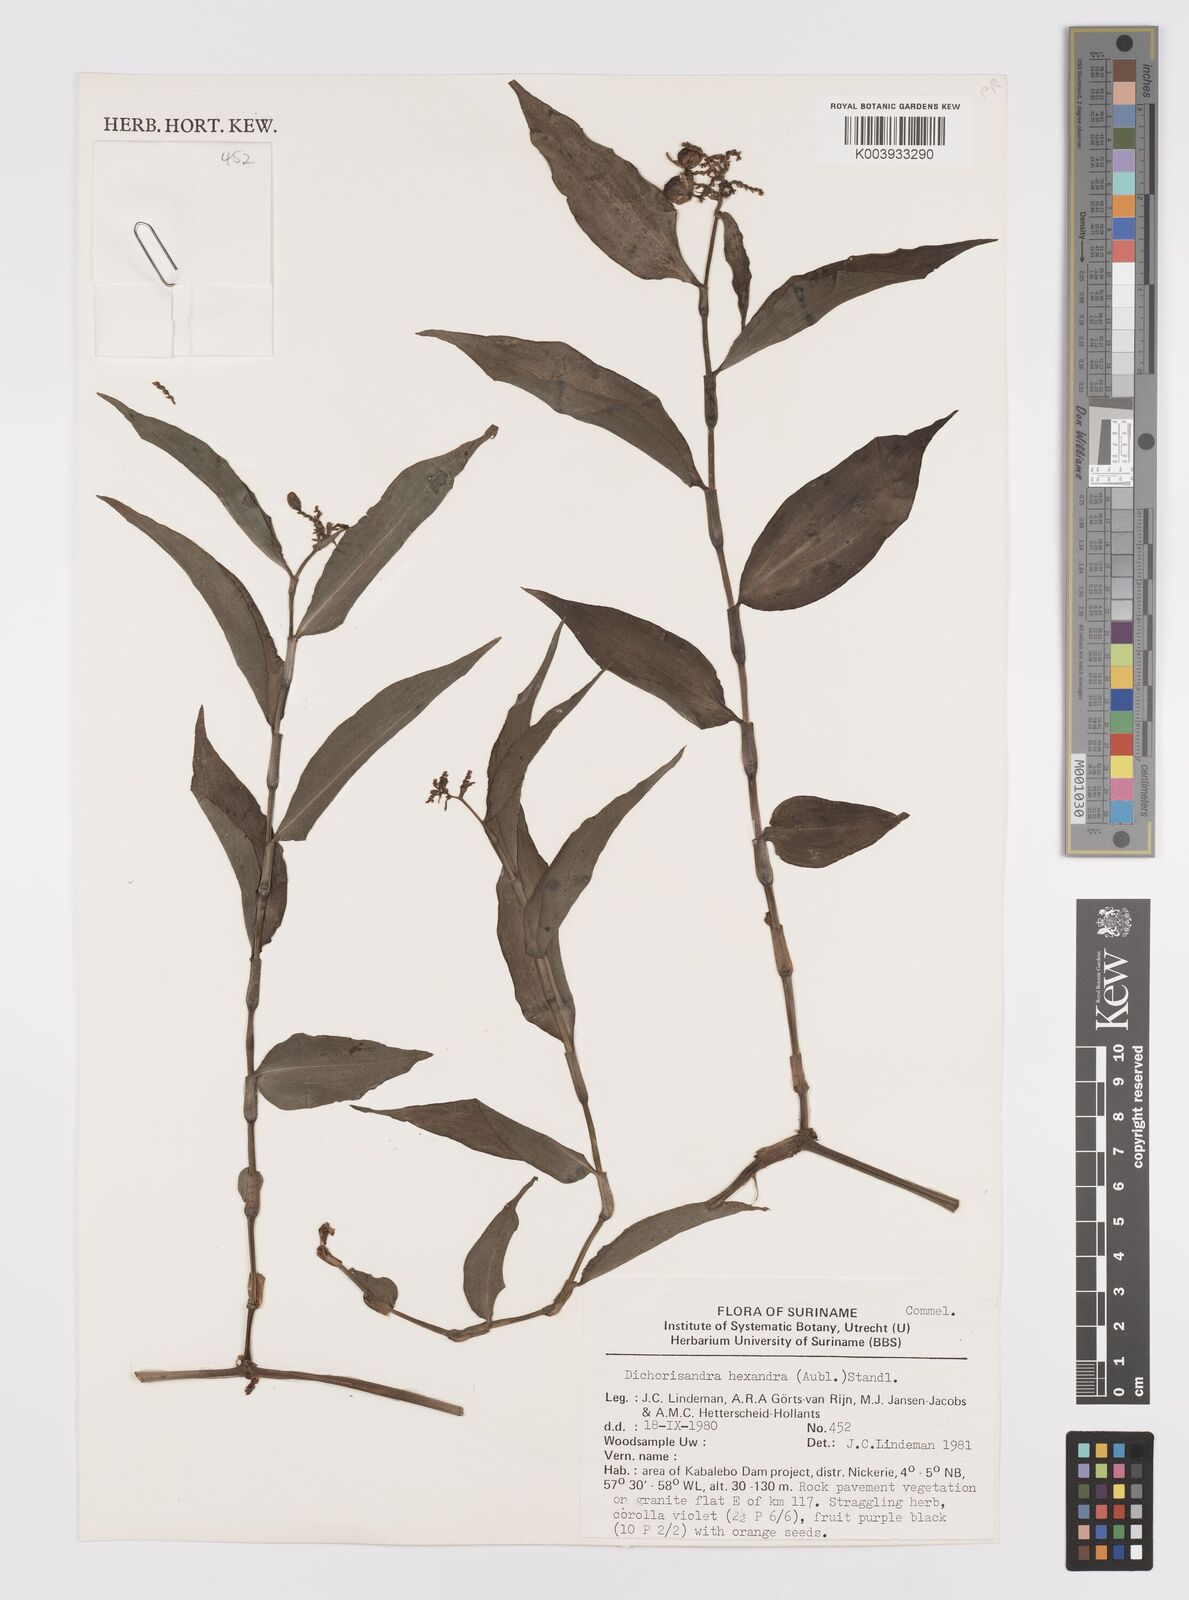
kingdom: Plantae
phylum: Tracheophyta
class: Liliopsida
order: Commelinales
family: Commelinaceae
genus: Dichorisandra
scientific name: Dichorisandra hexandra
